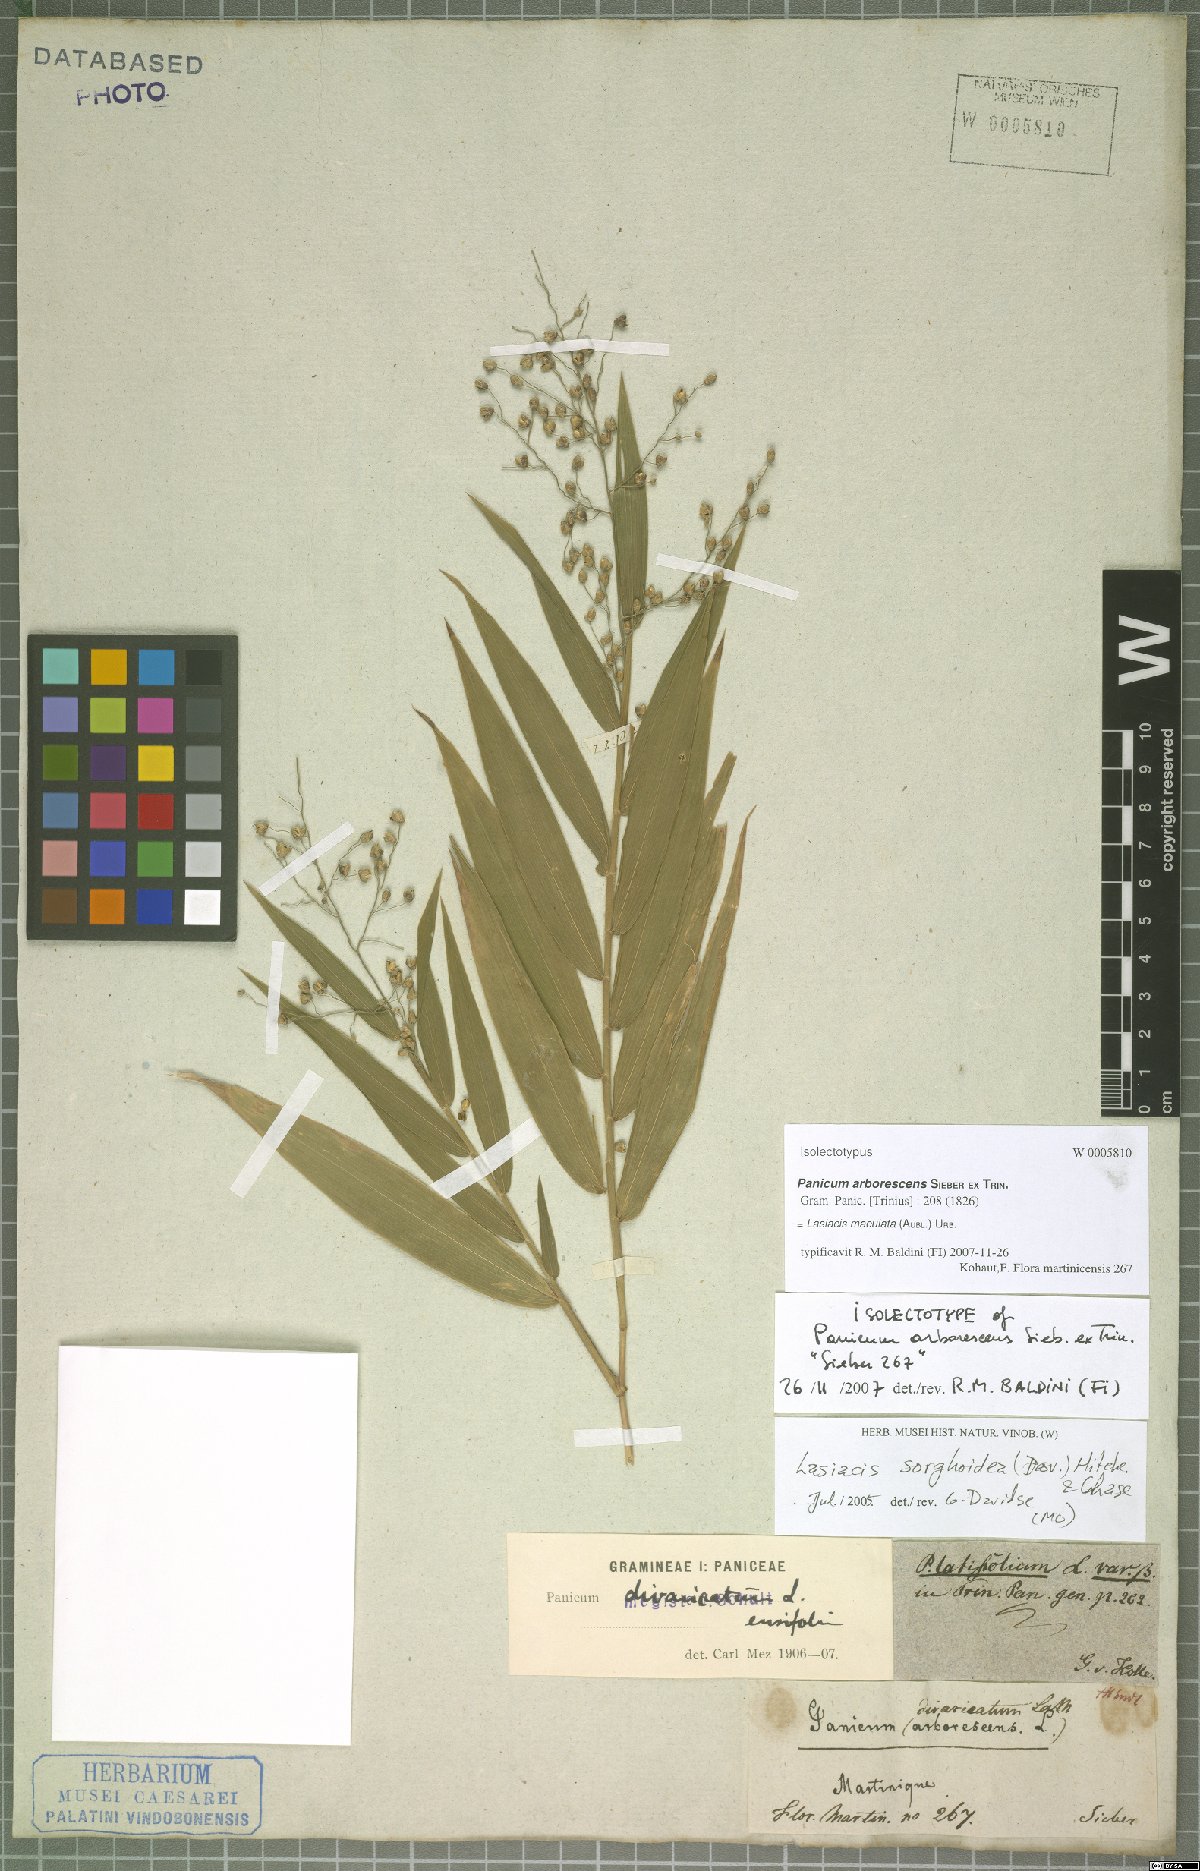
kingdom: Plantae
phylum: Tracheophyta
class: Liliopsida
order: Poales
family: Poaceae
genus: Lasiacis
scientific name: Lasiacis maculata
